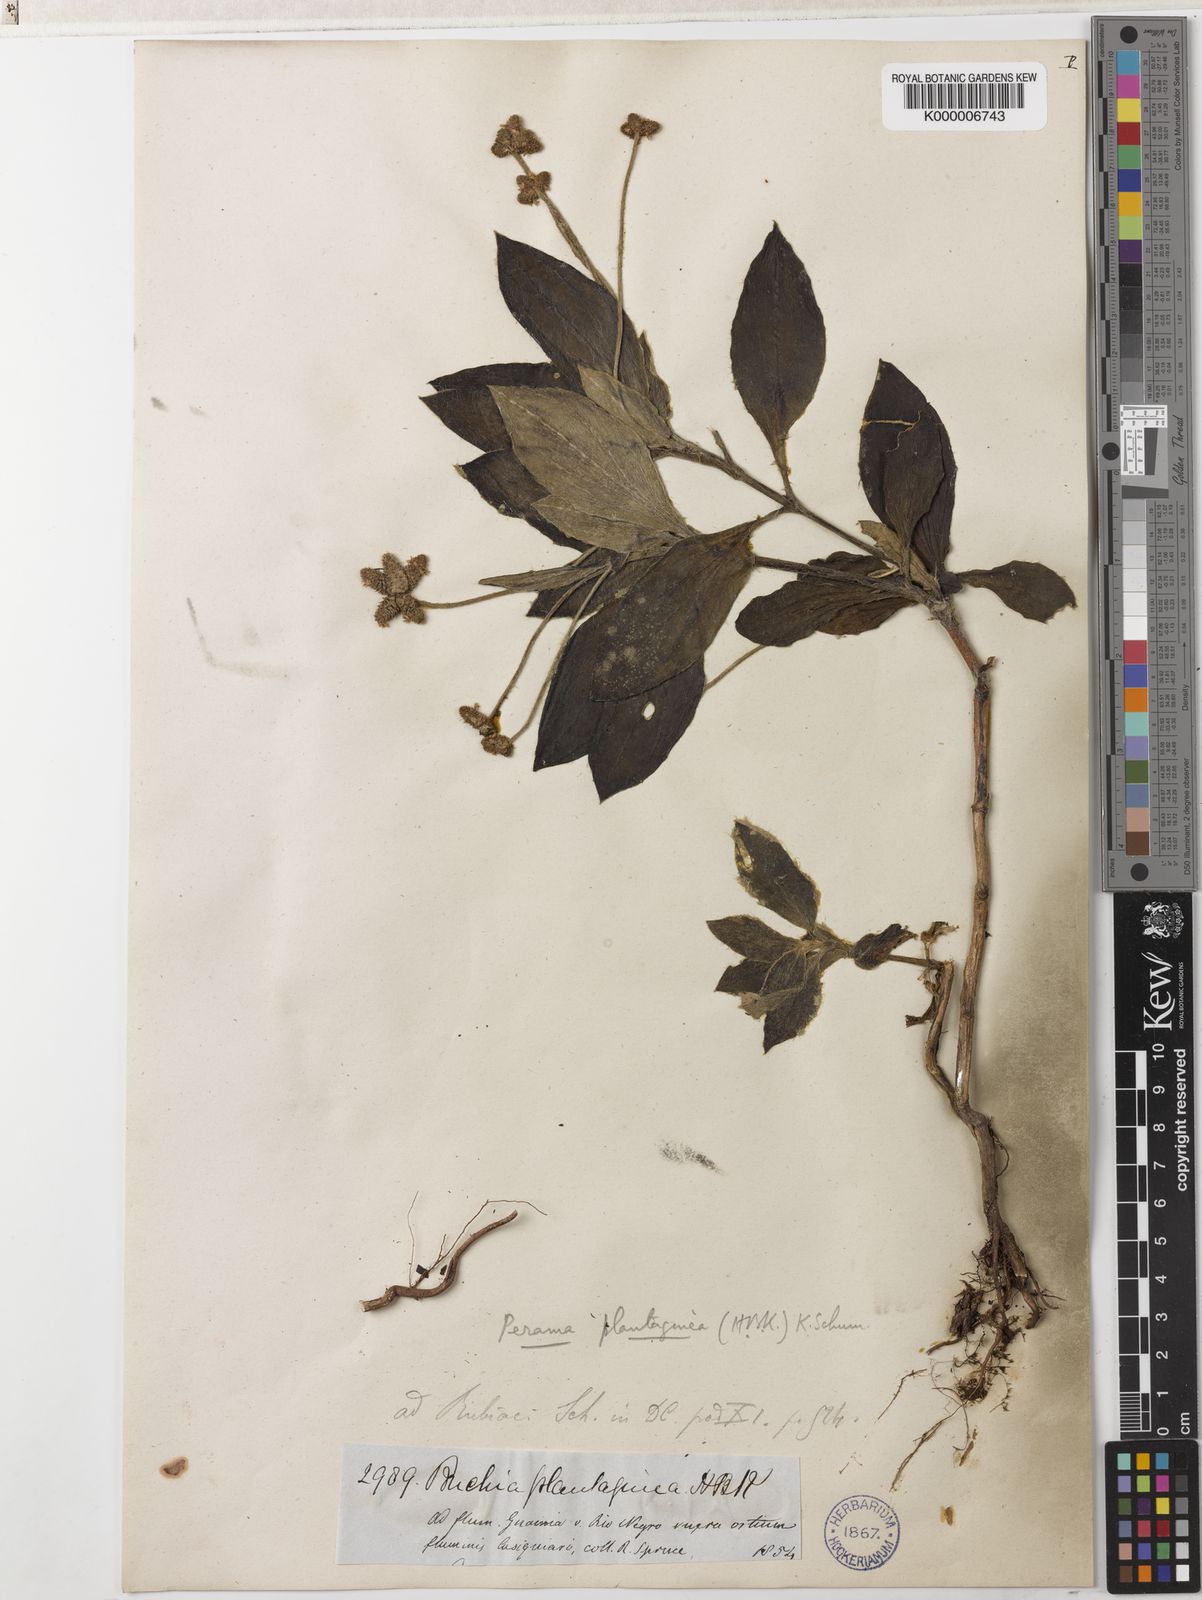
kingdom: Plantae
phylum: Tracheophyta
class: Magnoliopsida
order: Gentianales
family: Rubiaceae
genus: Perama
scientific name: Perama
